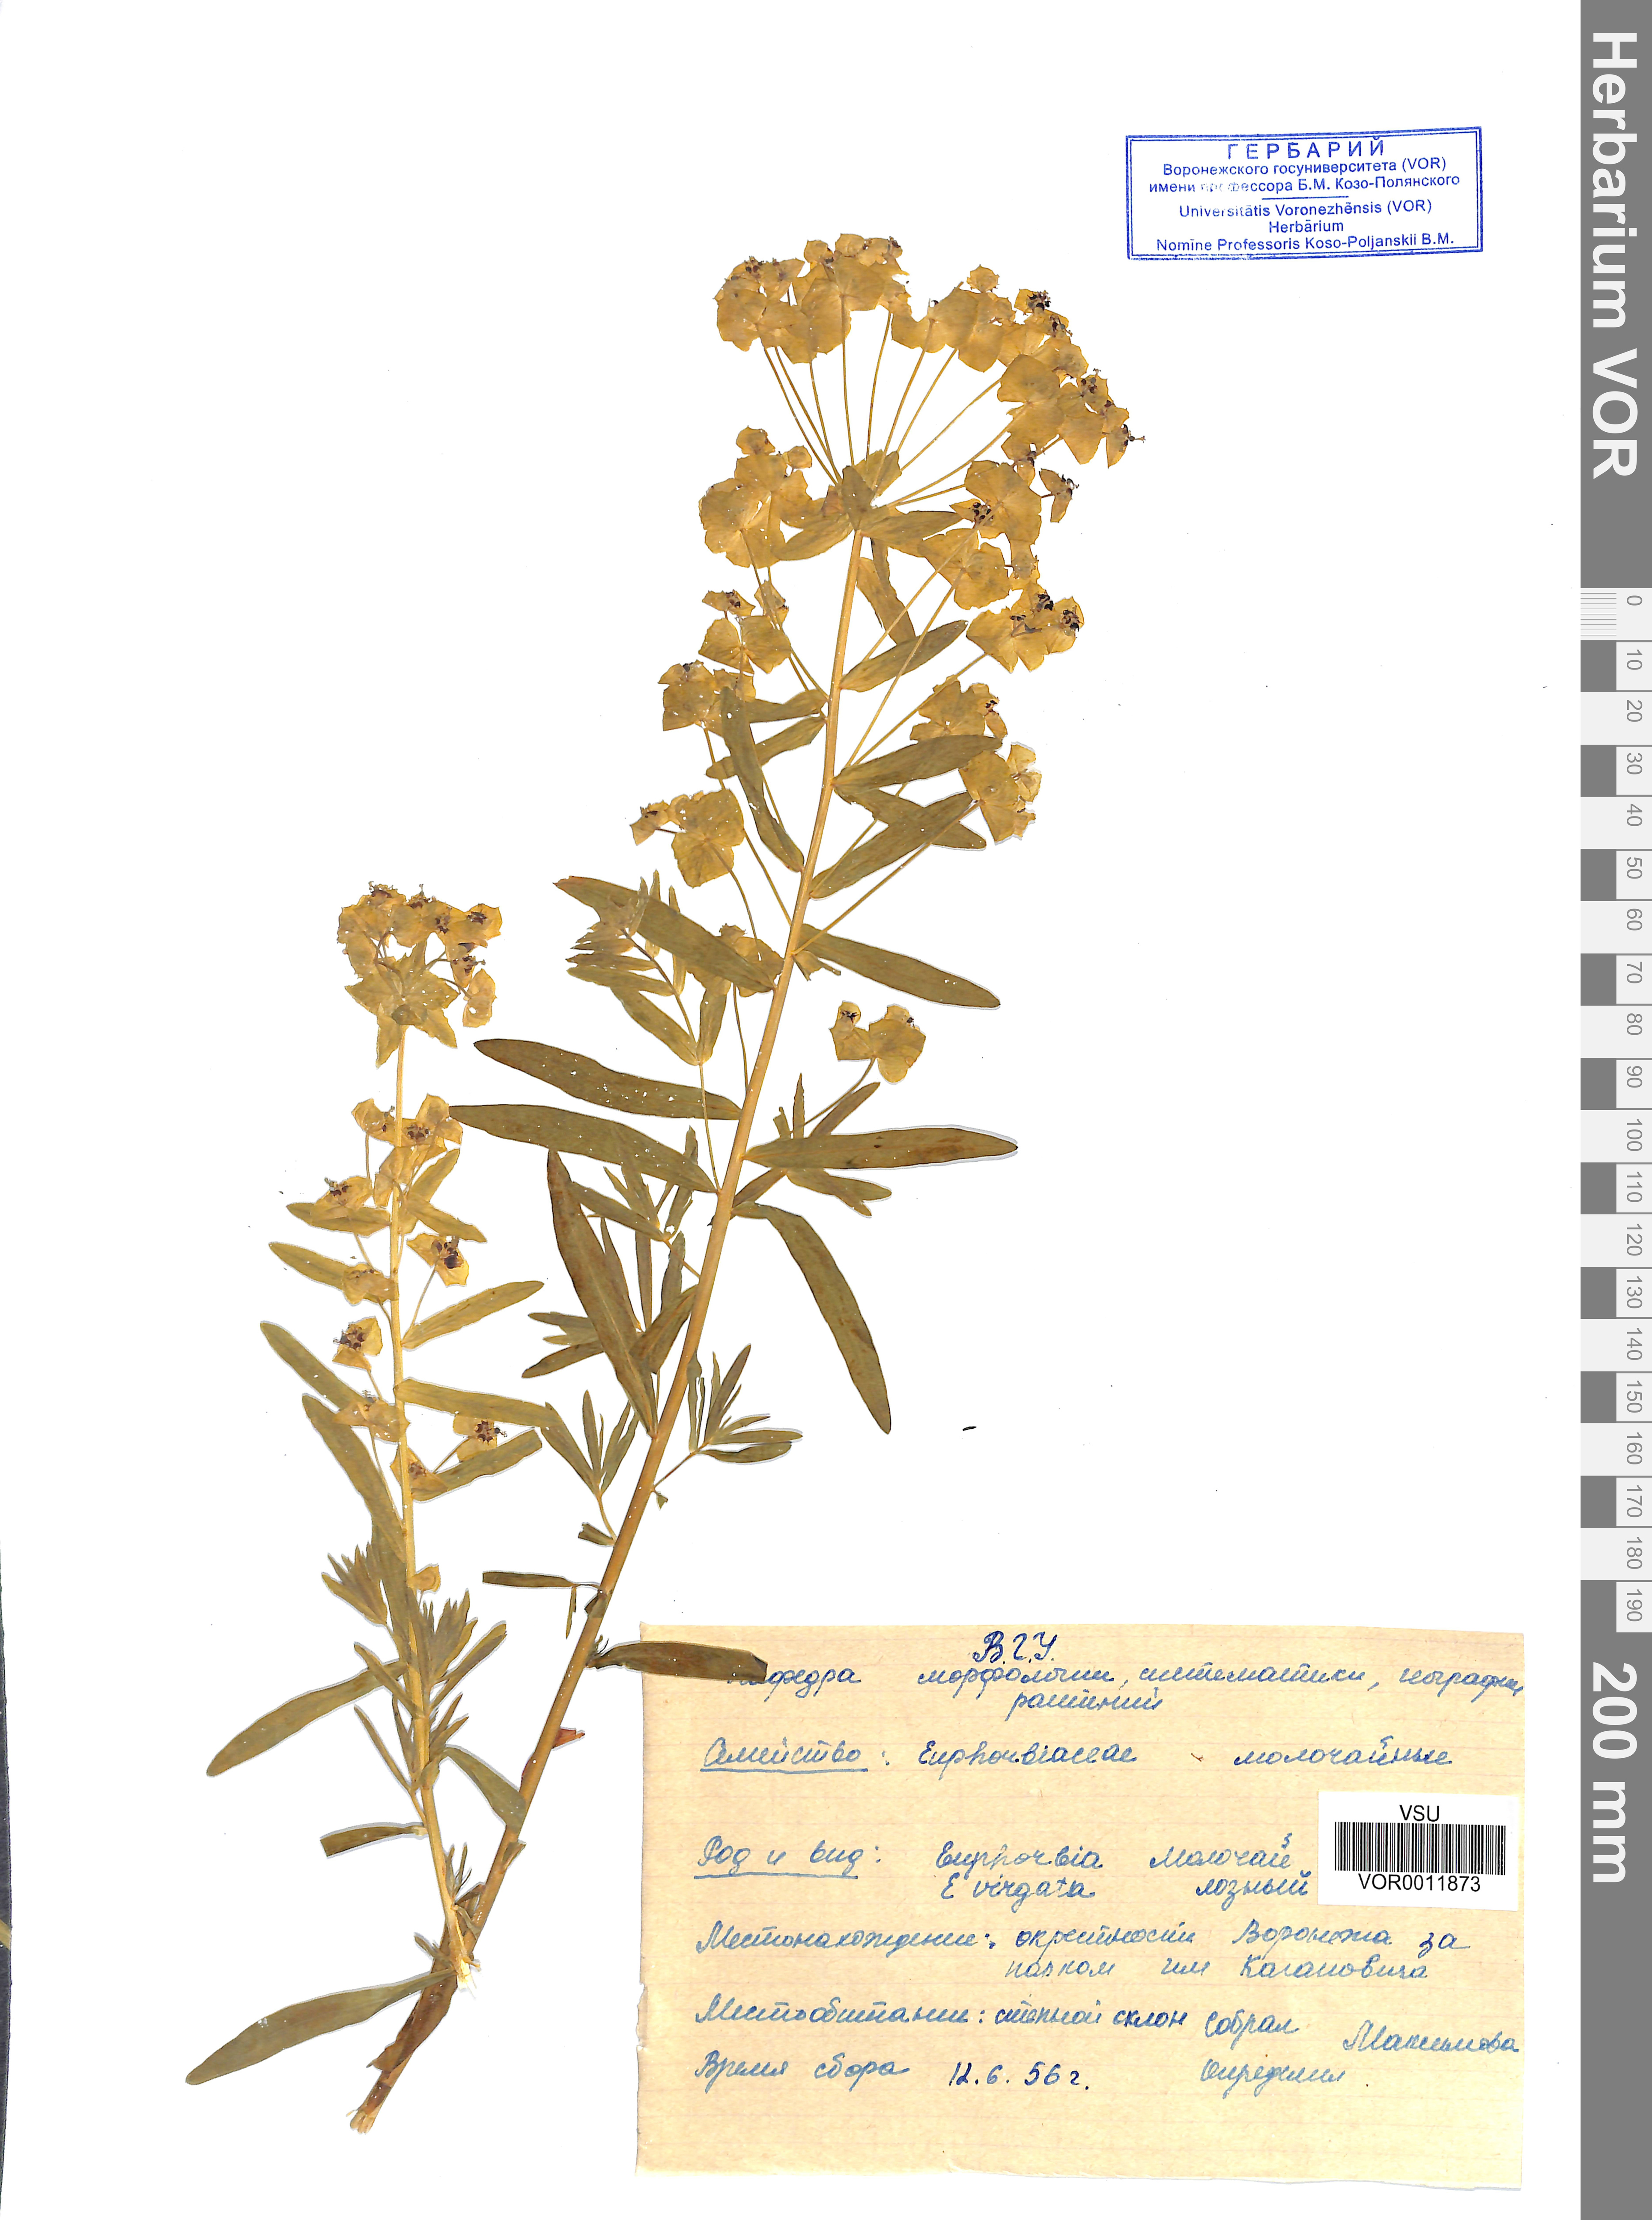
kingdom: Plantae
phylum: Tracheophyta
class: Magnoliopsida
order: Malpighiales
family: Euphorbiaceae
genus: Euphorbia
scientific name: Euphorbia virgata
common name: Leafy spurge
